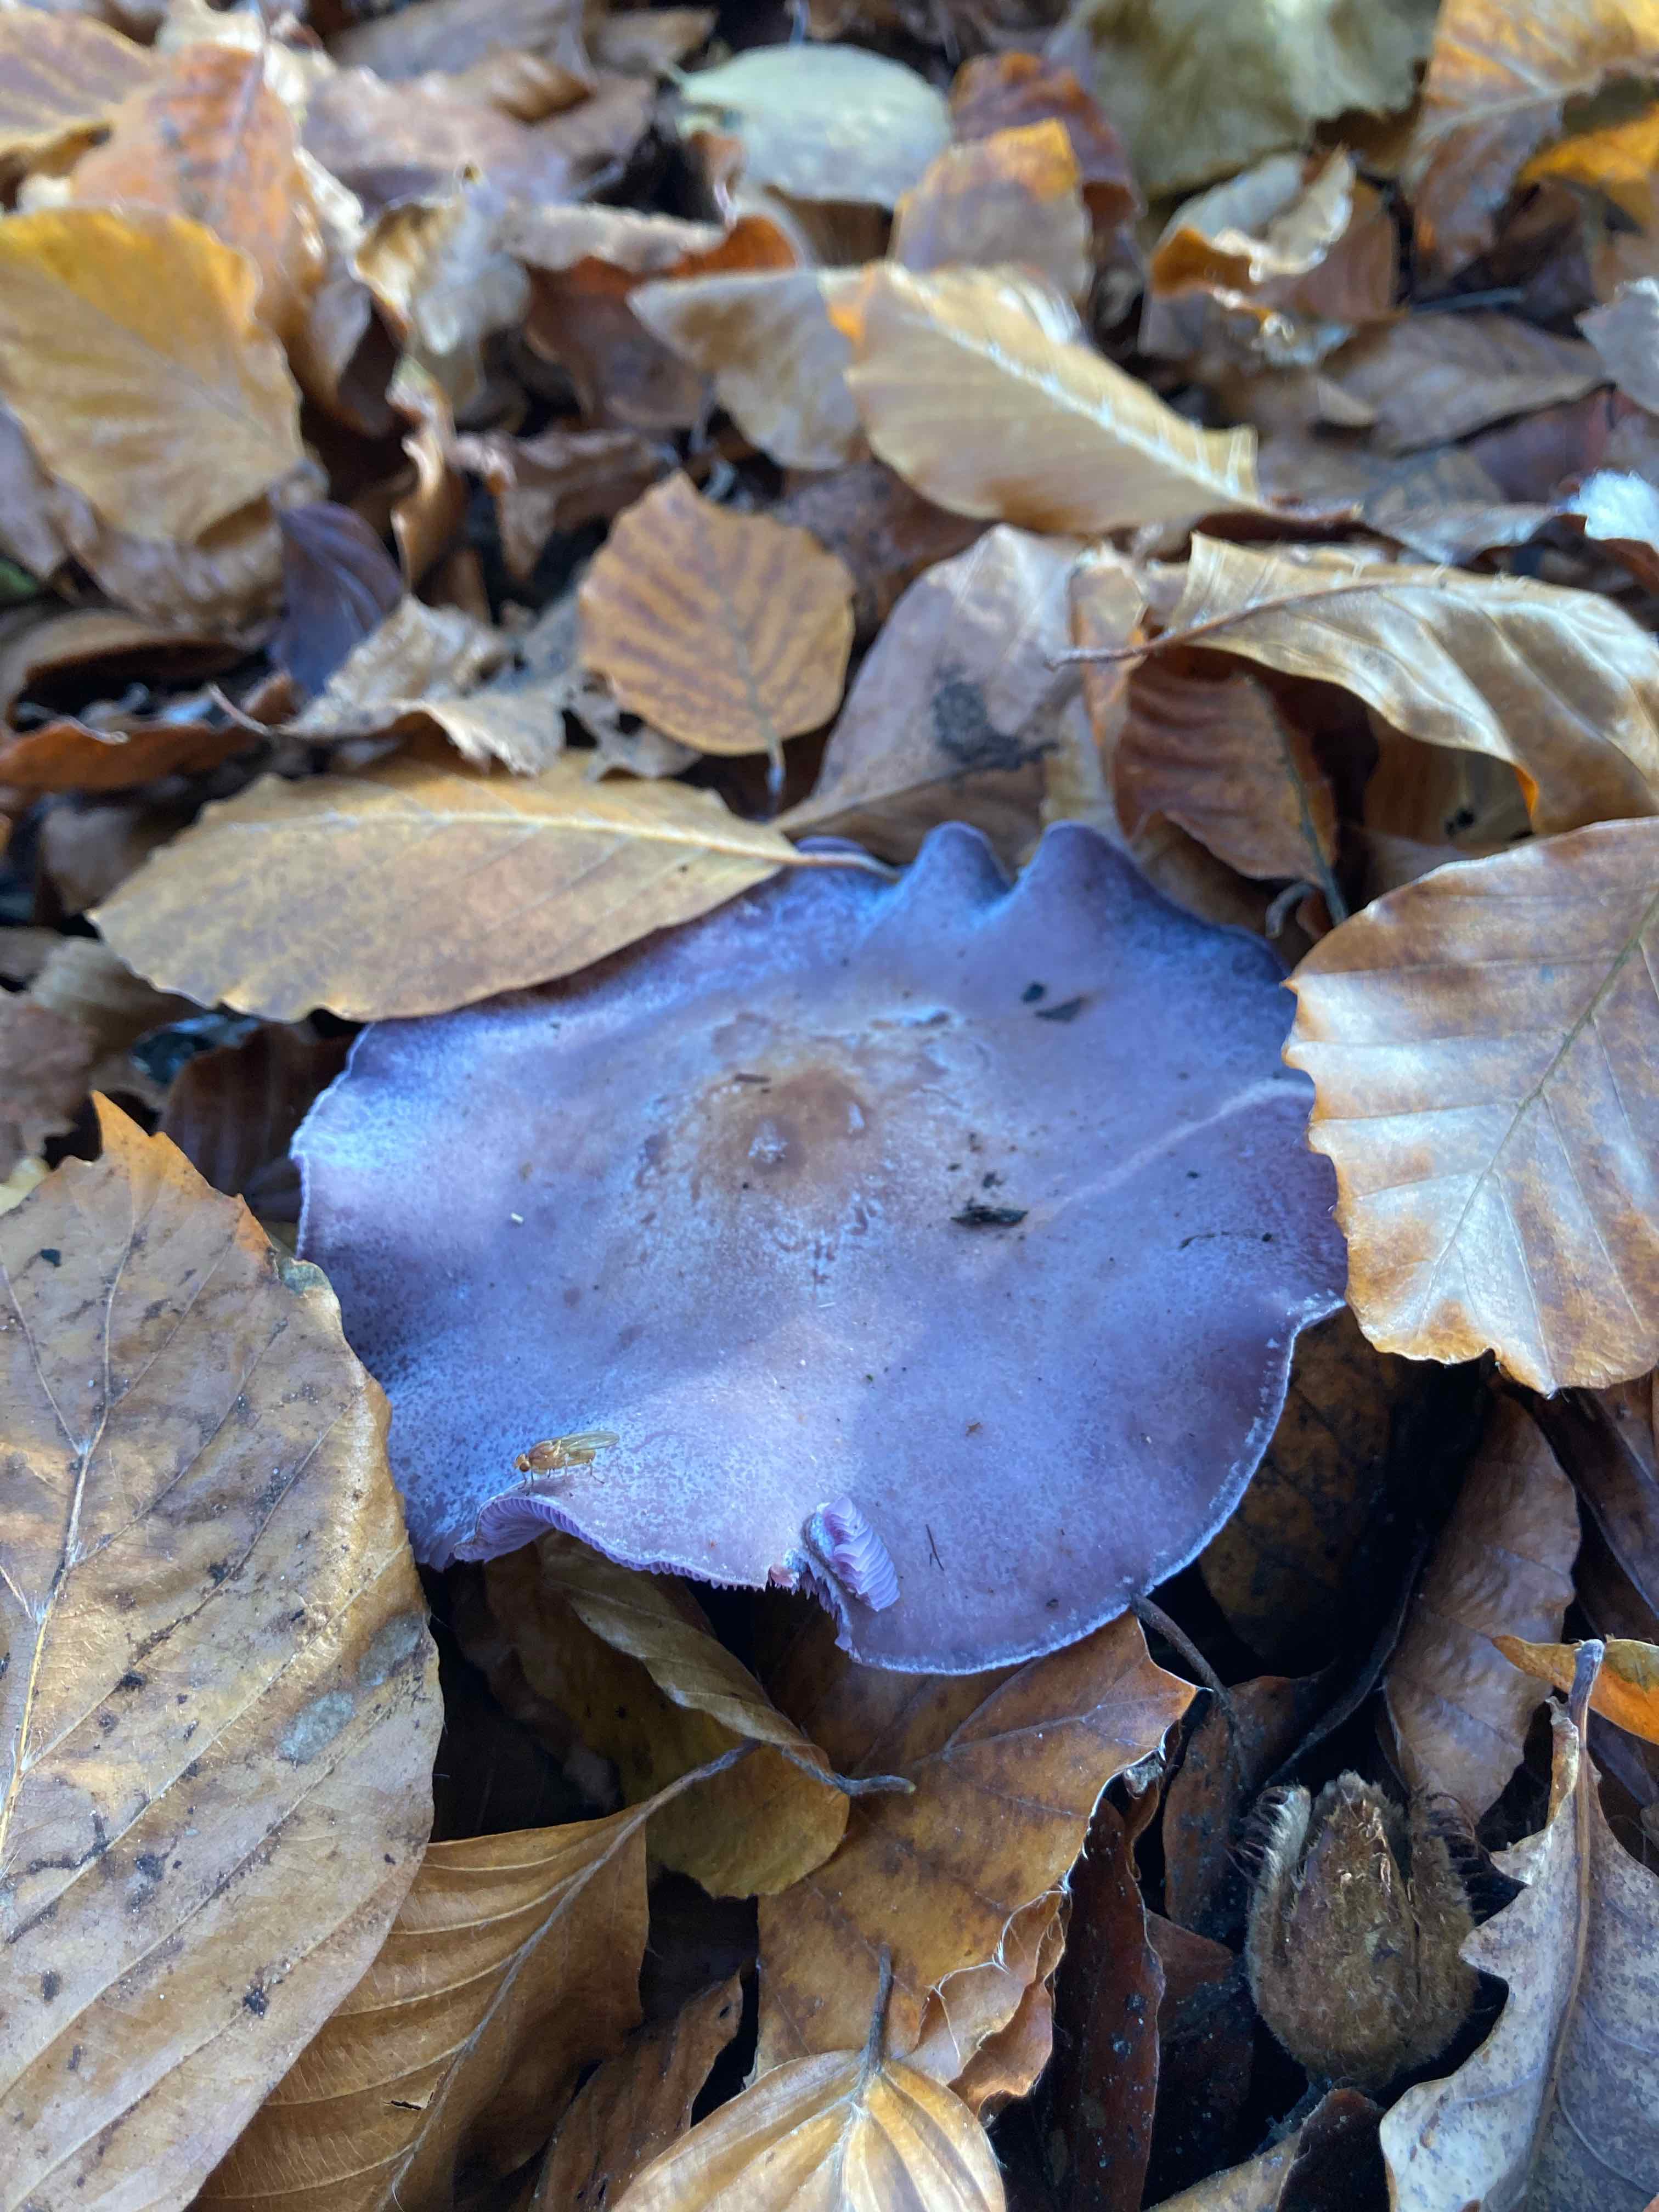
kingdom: Fungi
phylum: Basidiomycota
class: Agaricomycetes
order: Agaricales
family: Tricholomataceae
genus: Lepista
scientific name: Lepista nuda
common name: violet hekseringshat
